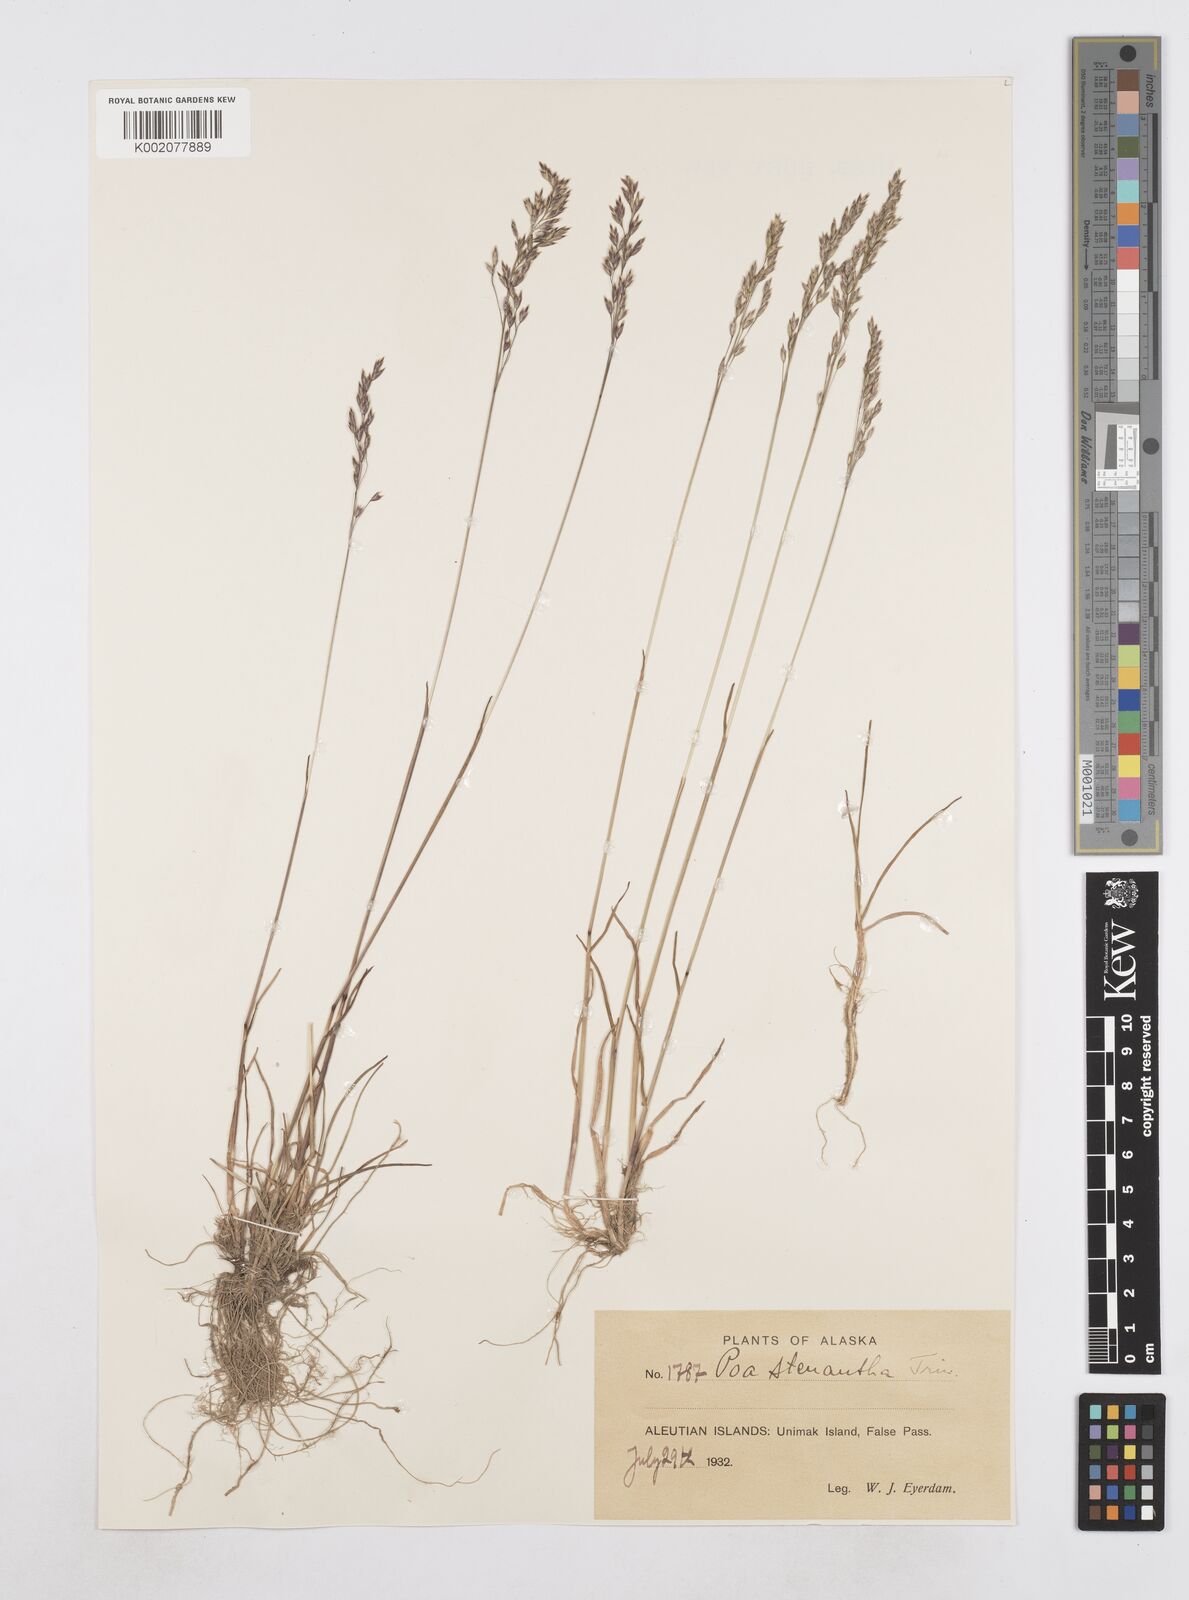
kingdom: Plantae
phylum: Tracheophyta
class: Liliopsida
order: Poales
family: Poaceae
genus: Poa
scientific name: Poa stenantha
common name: Narrow-flowered bluegrass
